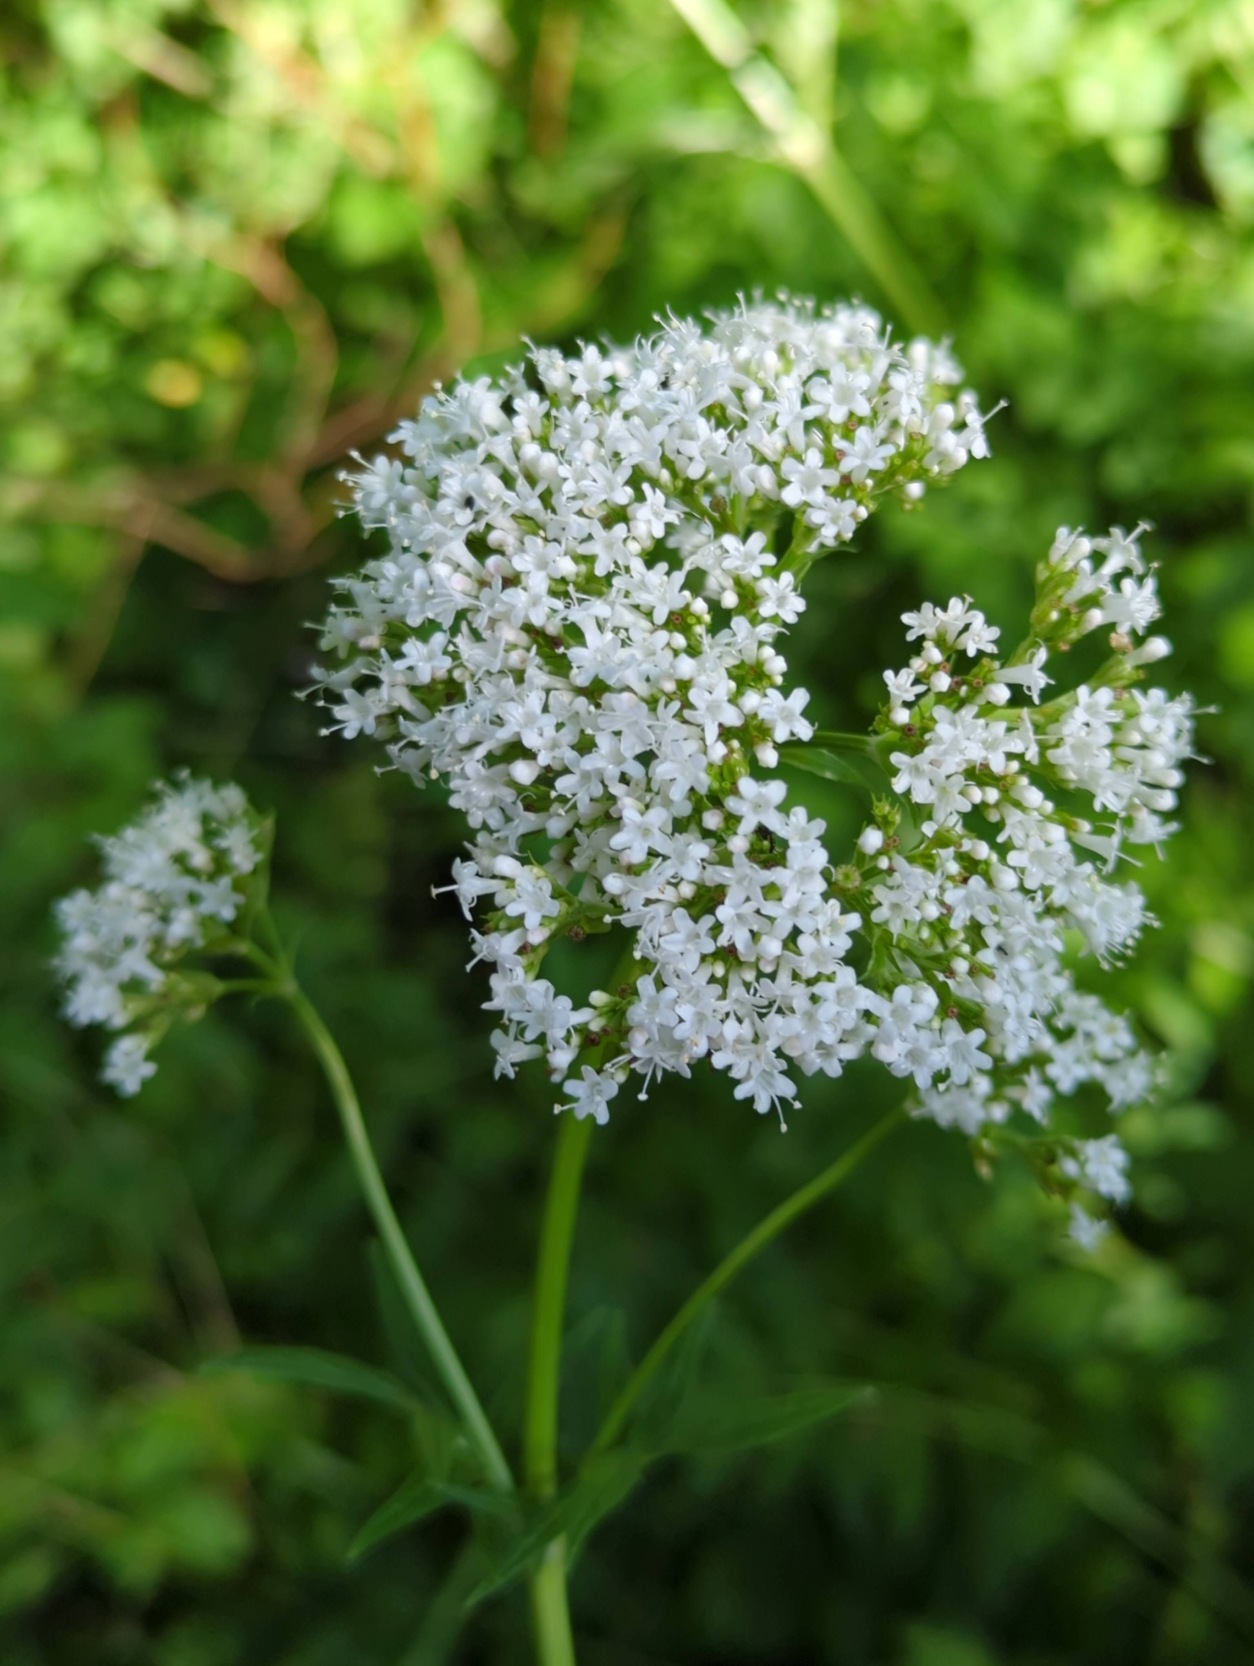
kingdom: Plantae
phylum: Tracheophyta
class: Magnoliopsida
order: Dipsacales
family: Caprifoliaceae
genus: Valeriana
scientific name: Valeriana officinalis
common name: Læge-baldrian
